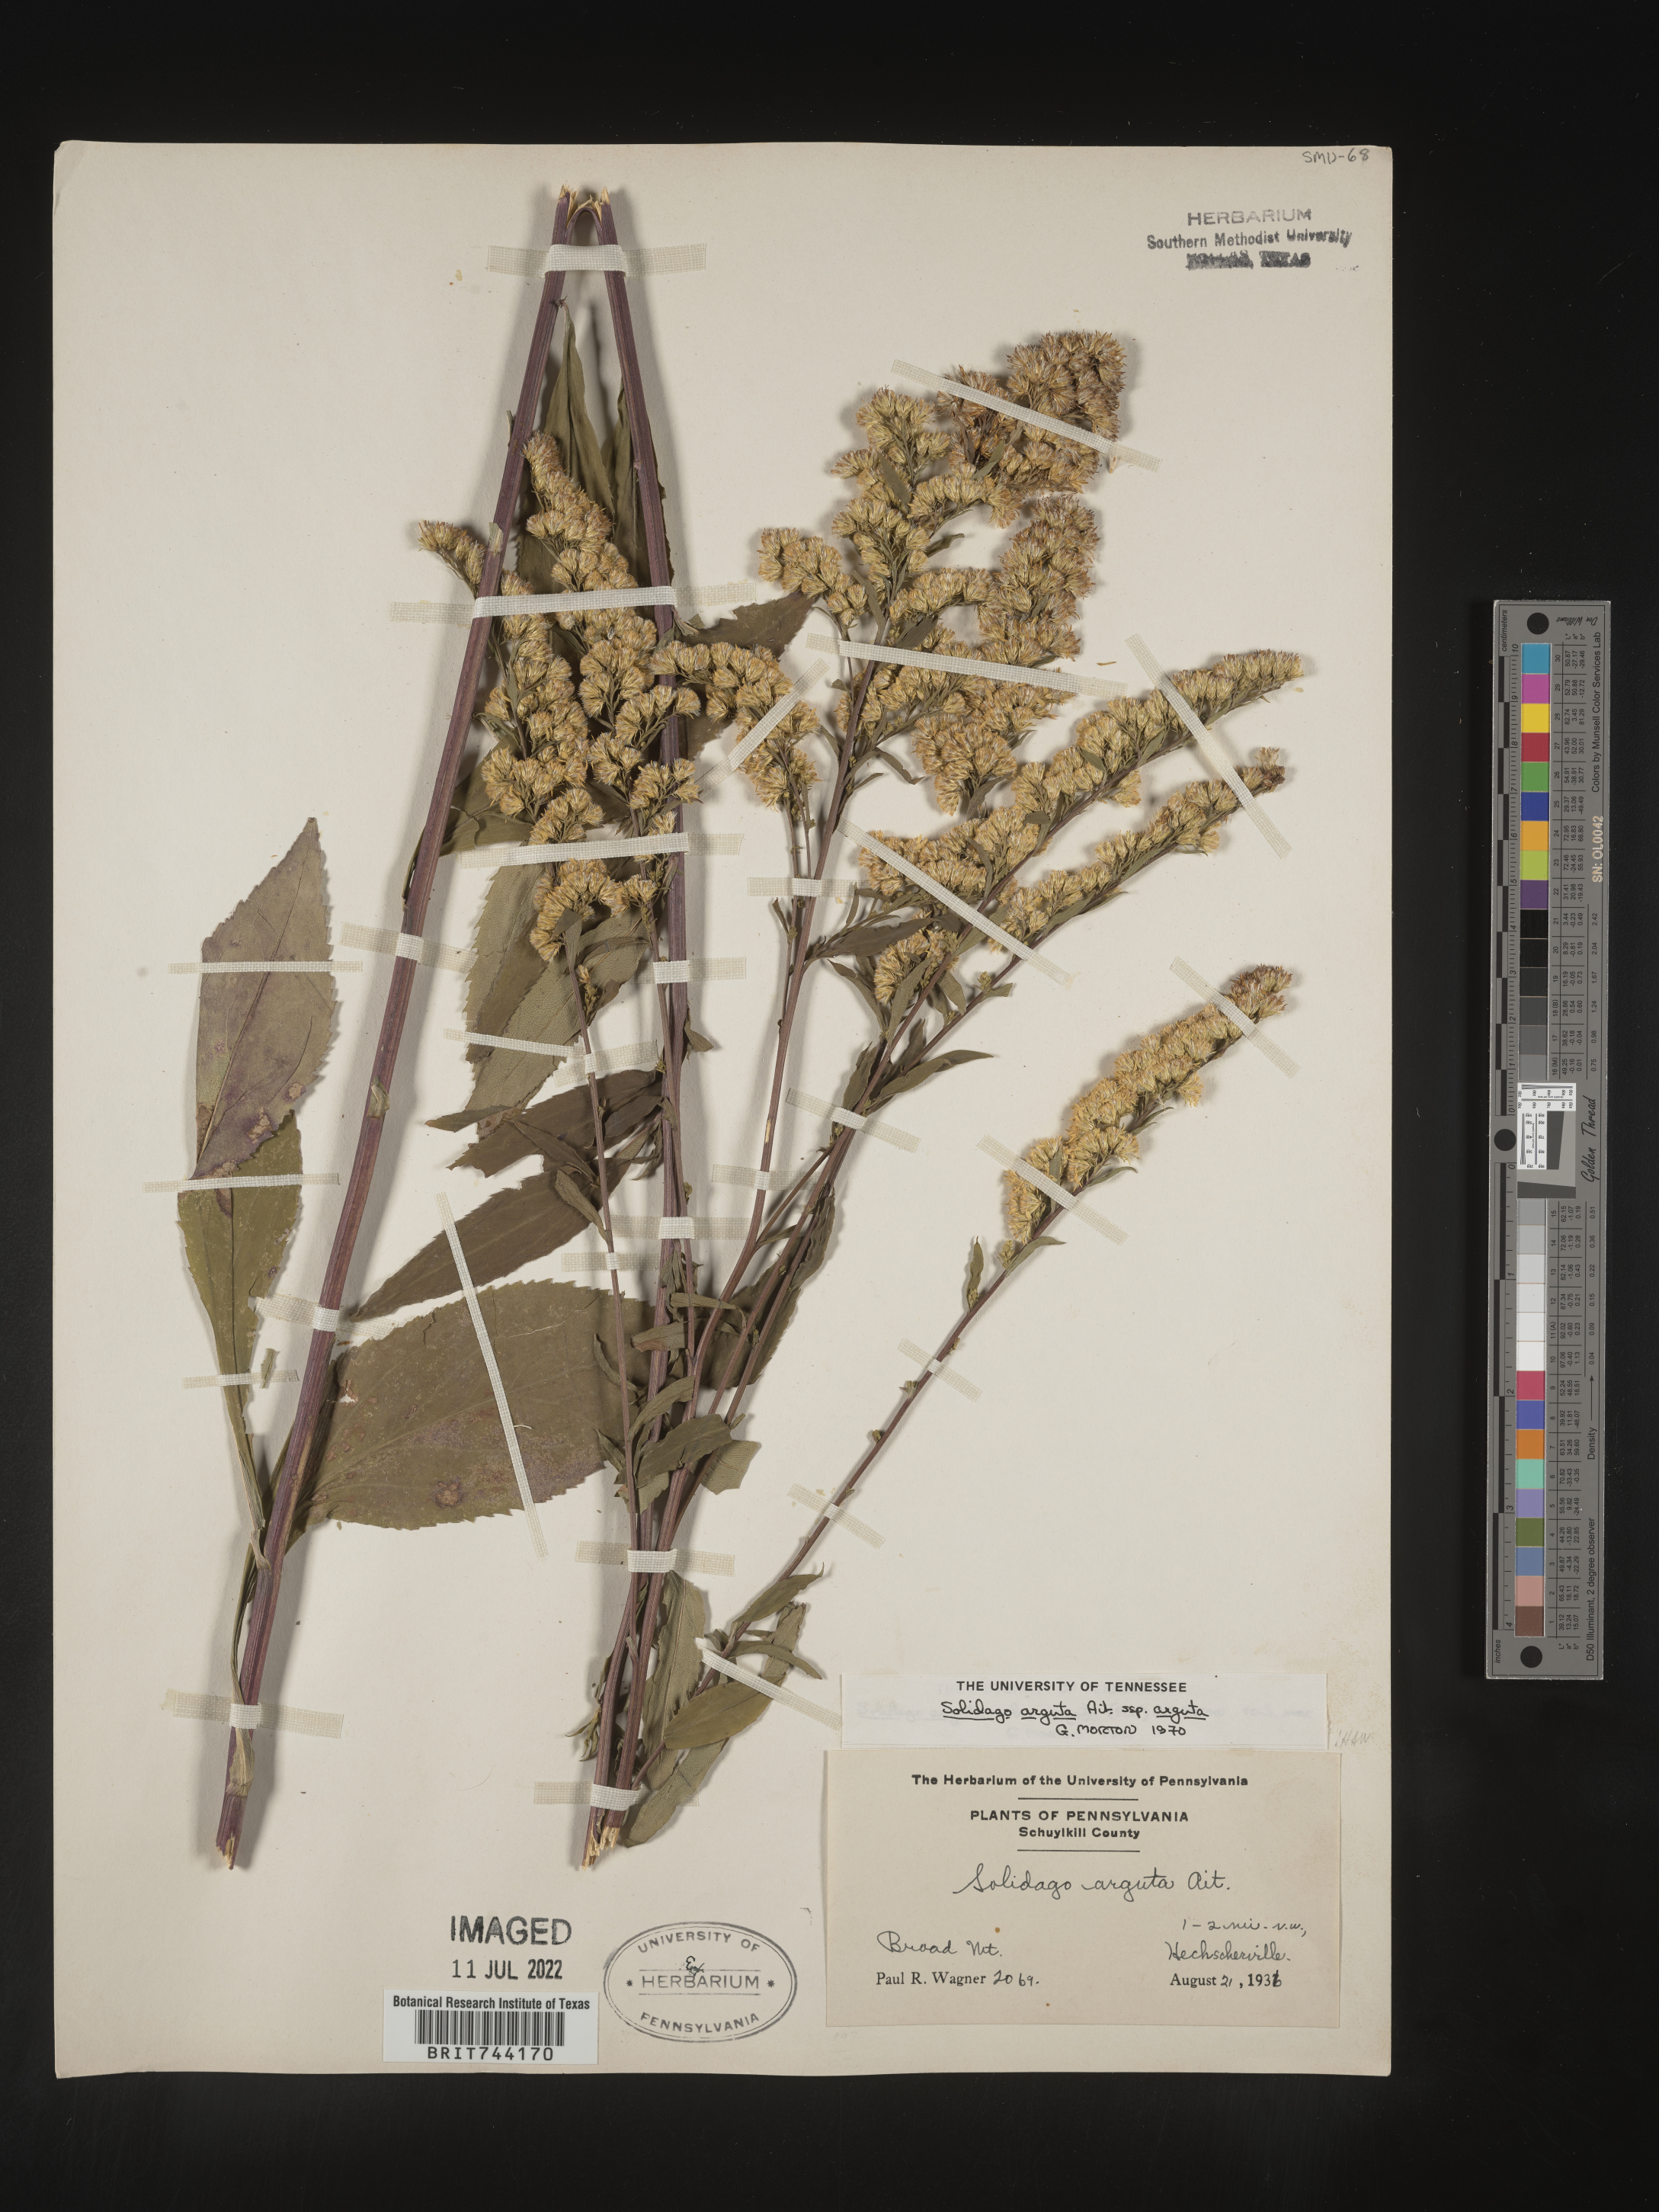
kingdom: Plantae
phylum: Tracheophyta
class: Magnoliopsida
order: Asterales
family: Asteraceae
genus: Solidago
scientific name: Solidago arguta
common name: Atlantic goldenrod
